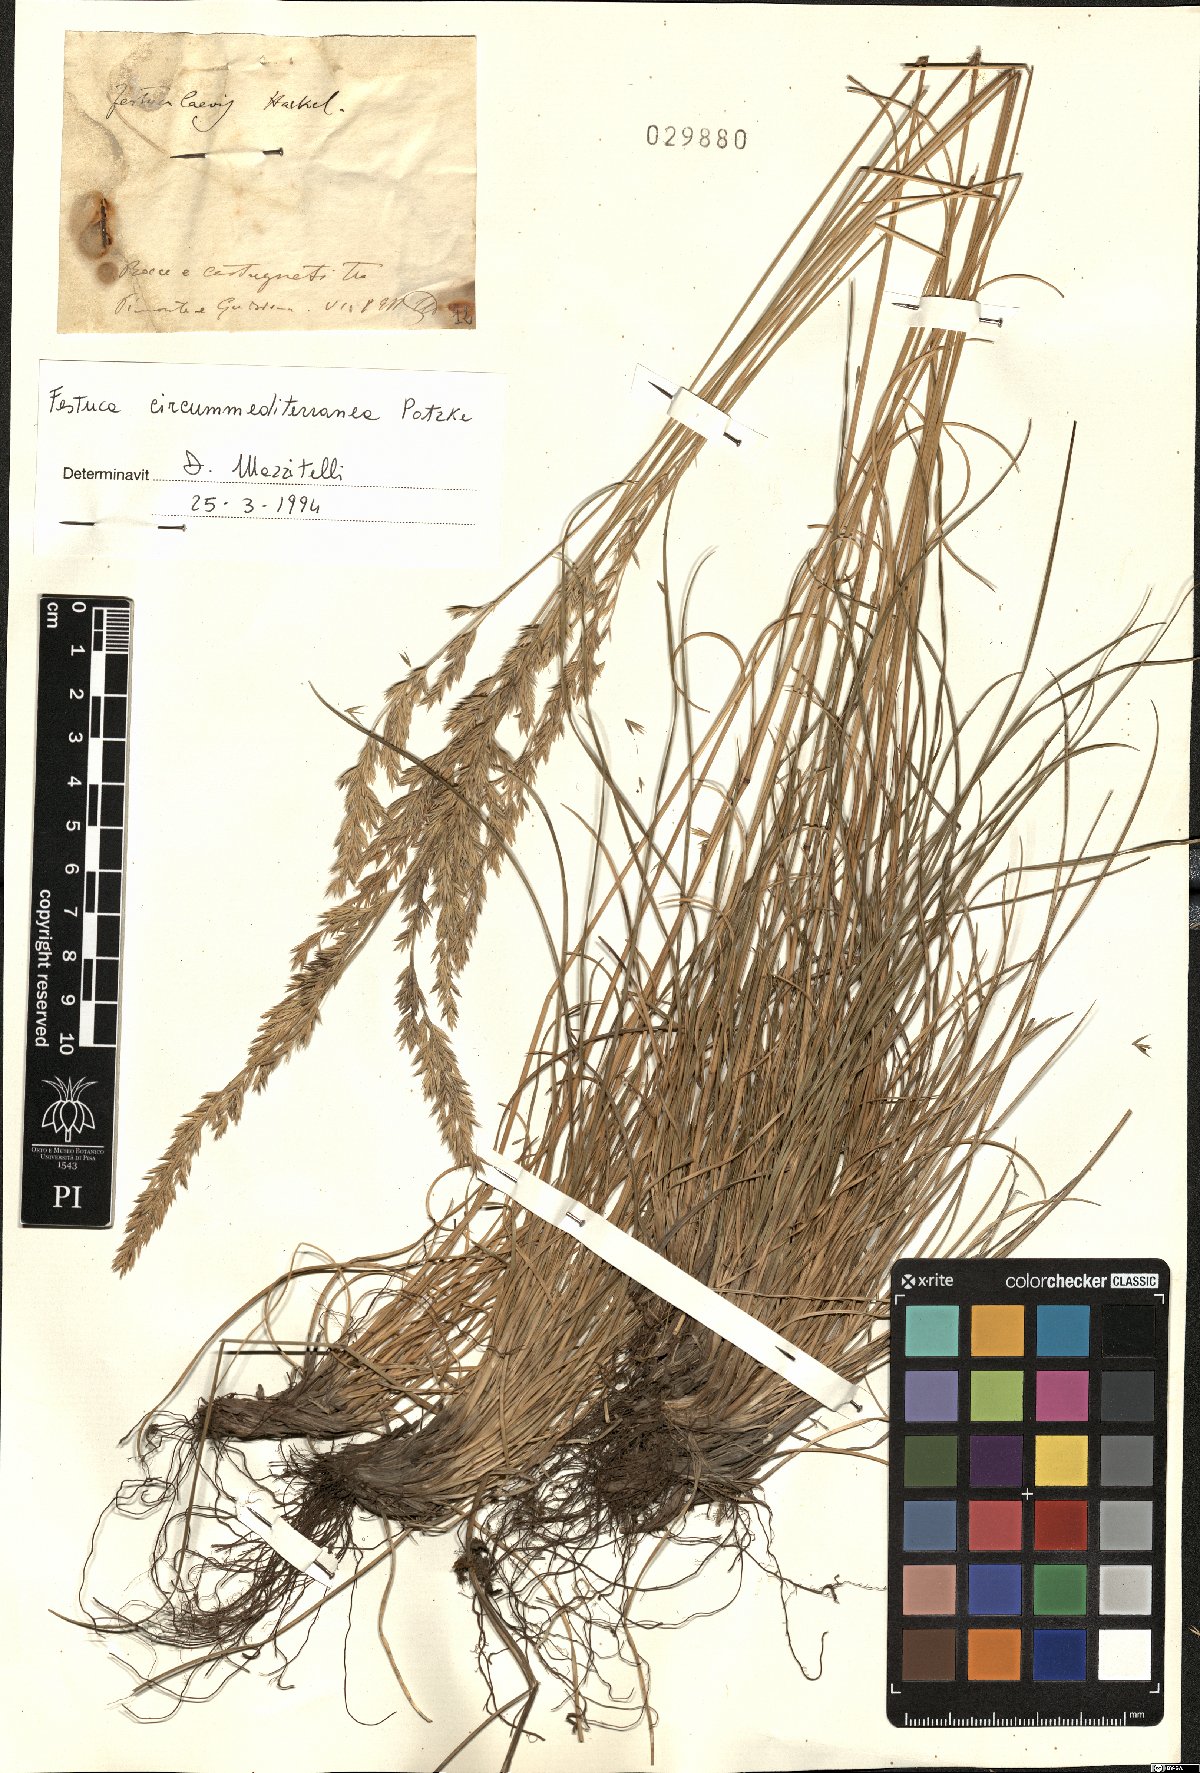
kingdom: Plantae
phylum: Tracheophyta
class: Liliopsida
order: Poales
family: Poaceae
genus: Festuca
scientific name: Festuca circummediterranea
